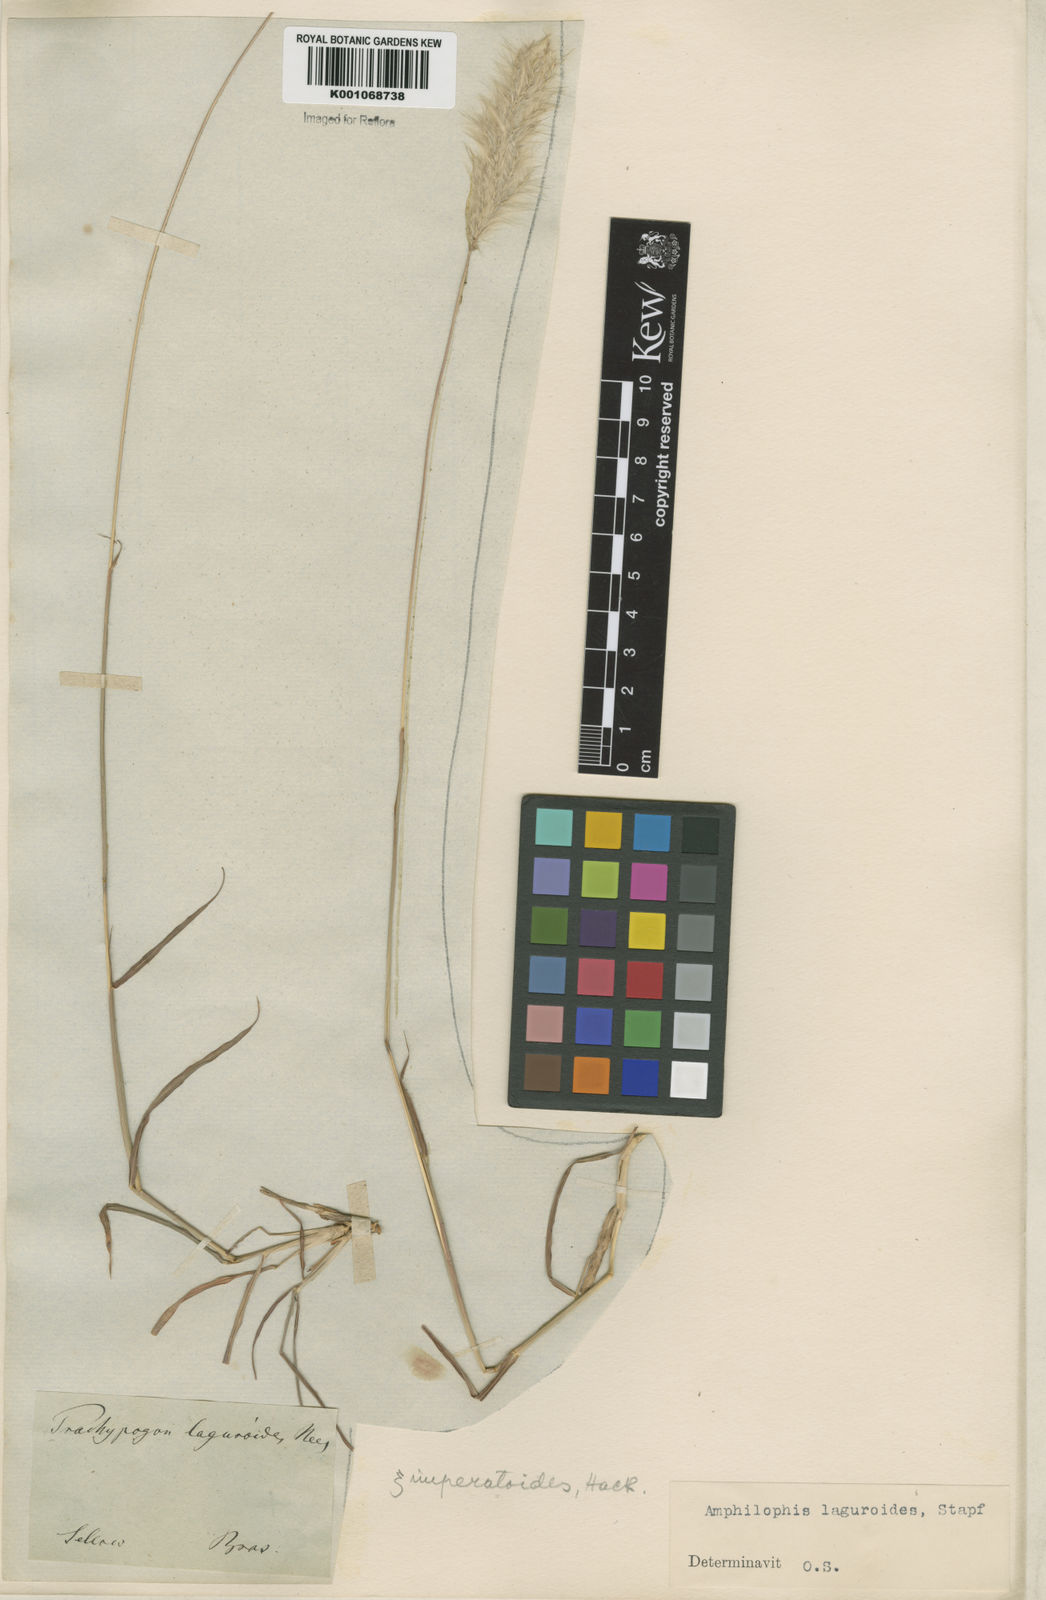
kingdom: Plantae
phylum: Tracheophyta
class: Liliopsida
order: Poales
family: Poaceae
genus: Bothriochloa
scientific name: Bothriochloa laguroides
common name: Silver bluestem
